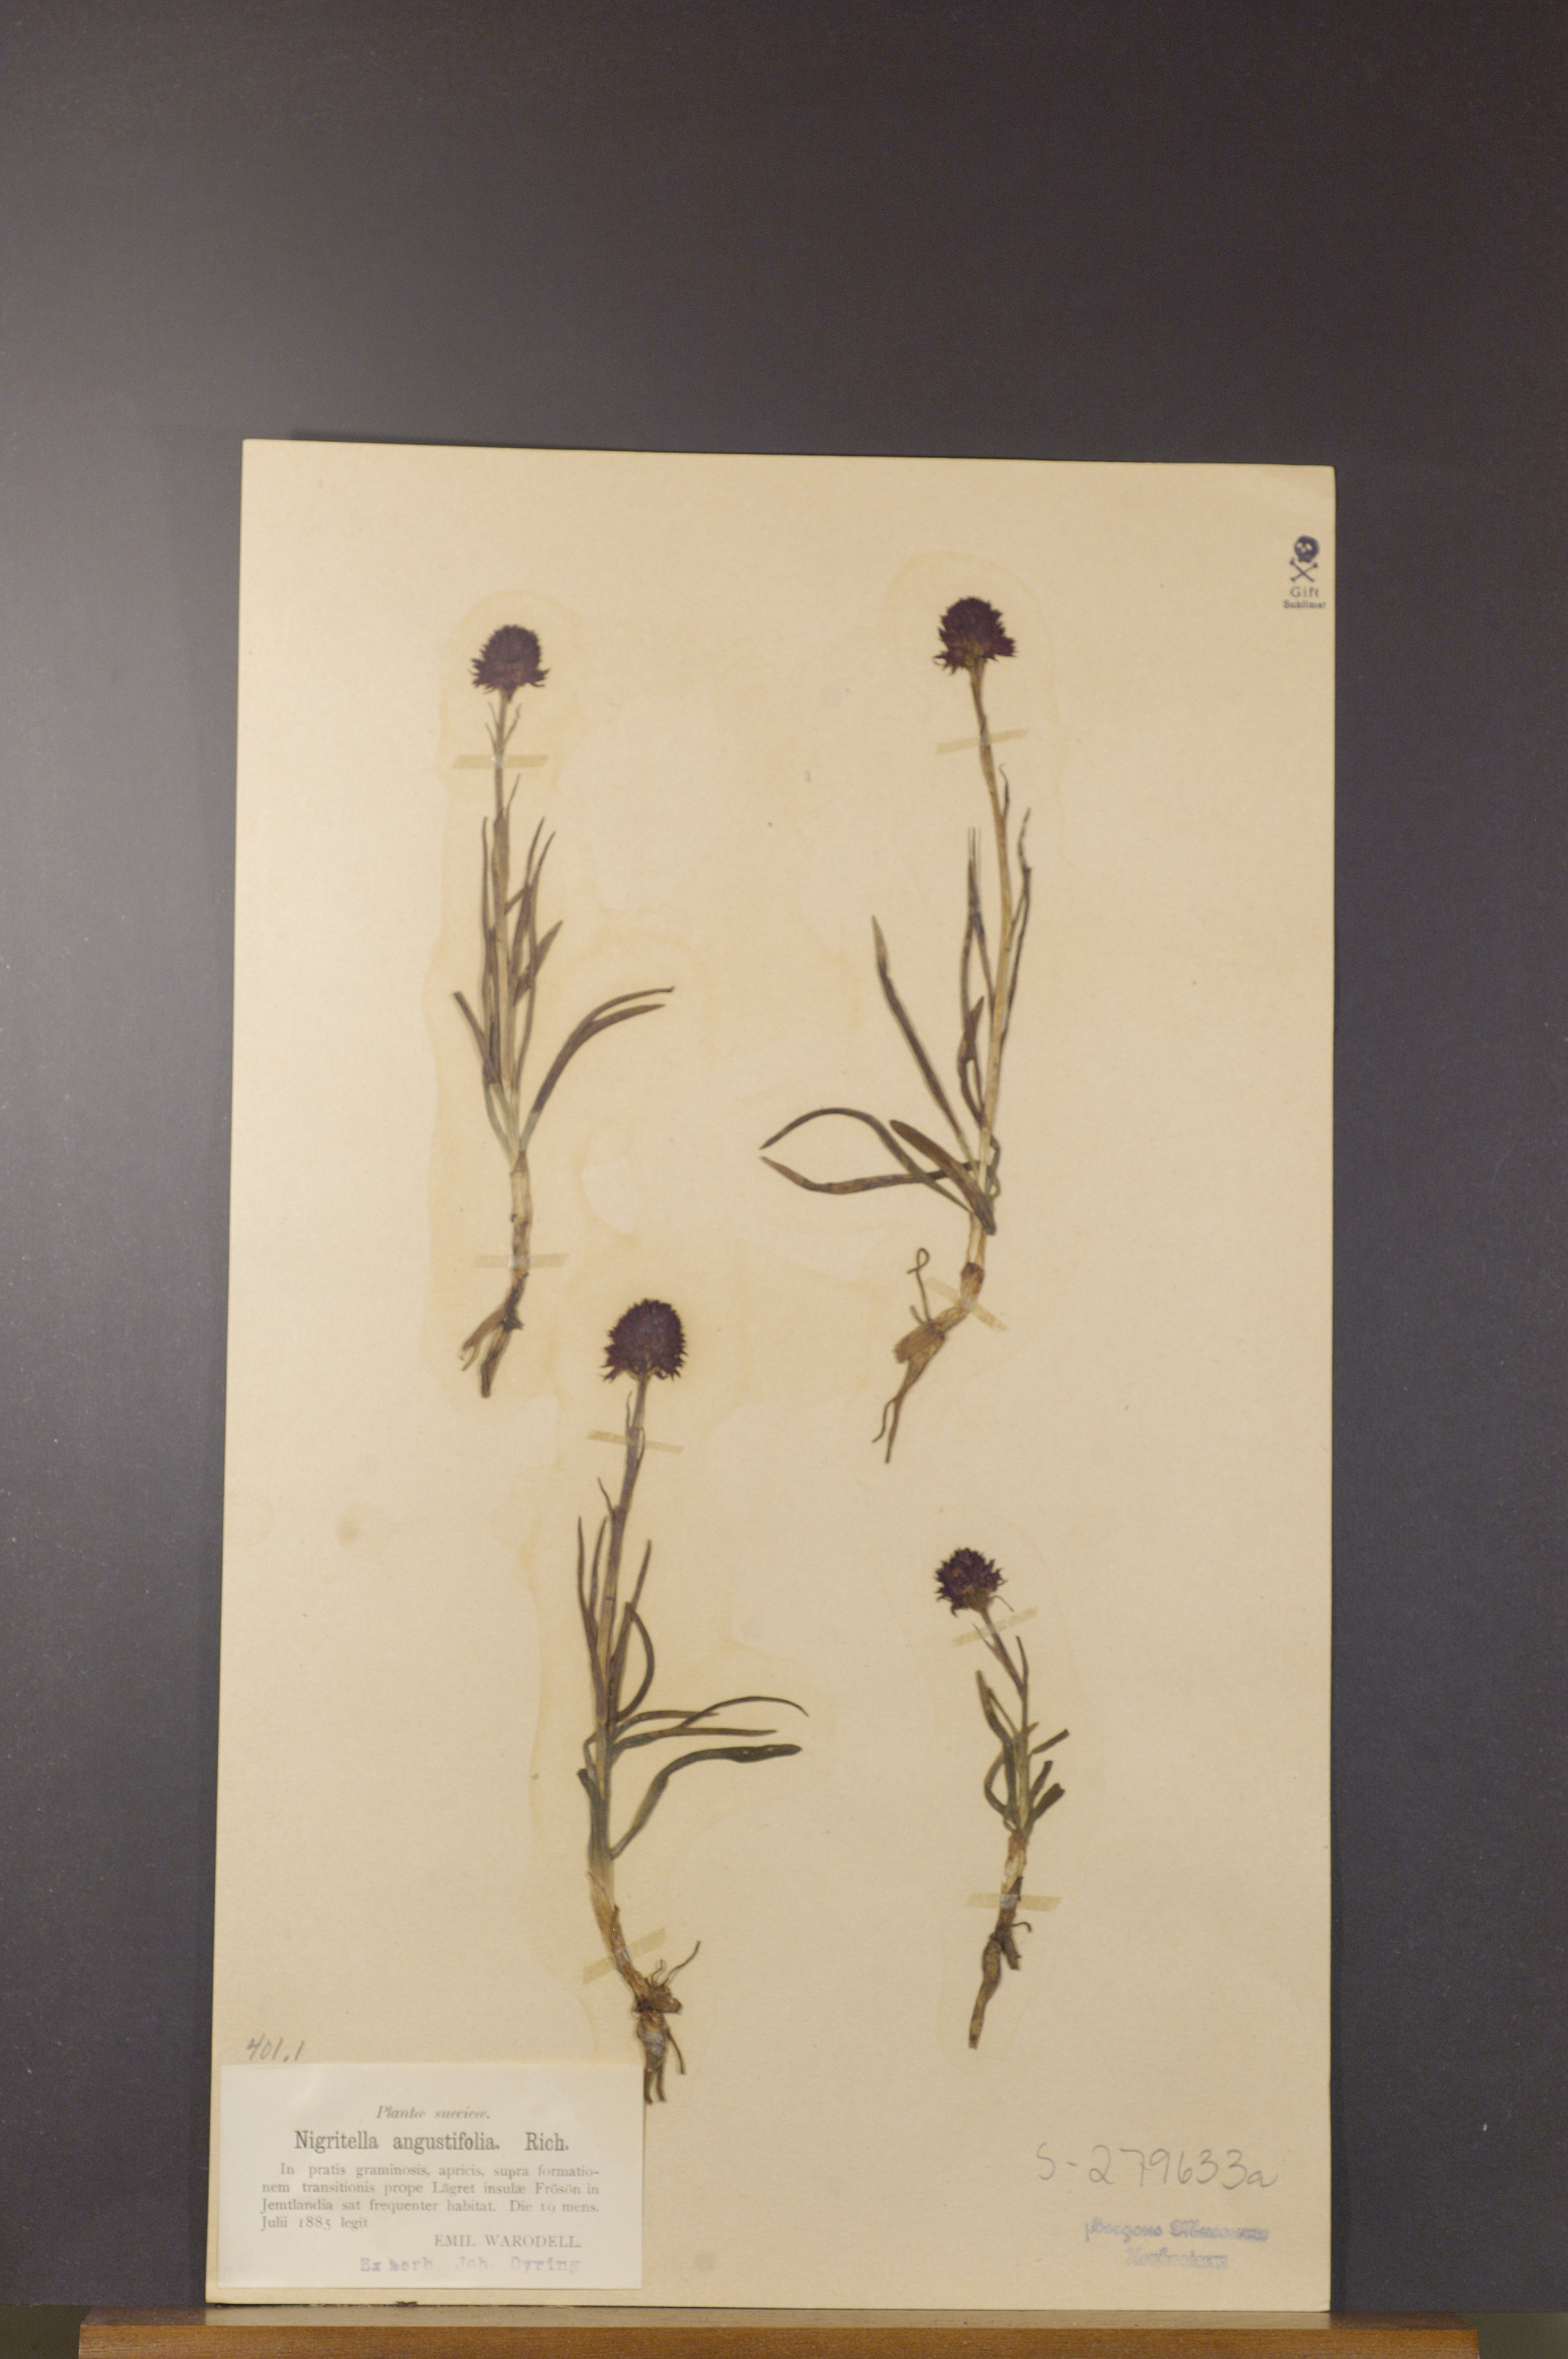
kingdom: Plantae
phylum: Tracheophyta
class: Liliopsida
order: Asparagales
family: Orchidaceae
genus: Gymnadenia
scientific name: Gymnadenia nigra
